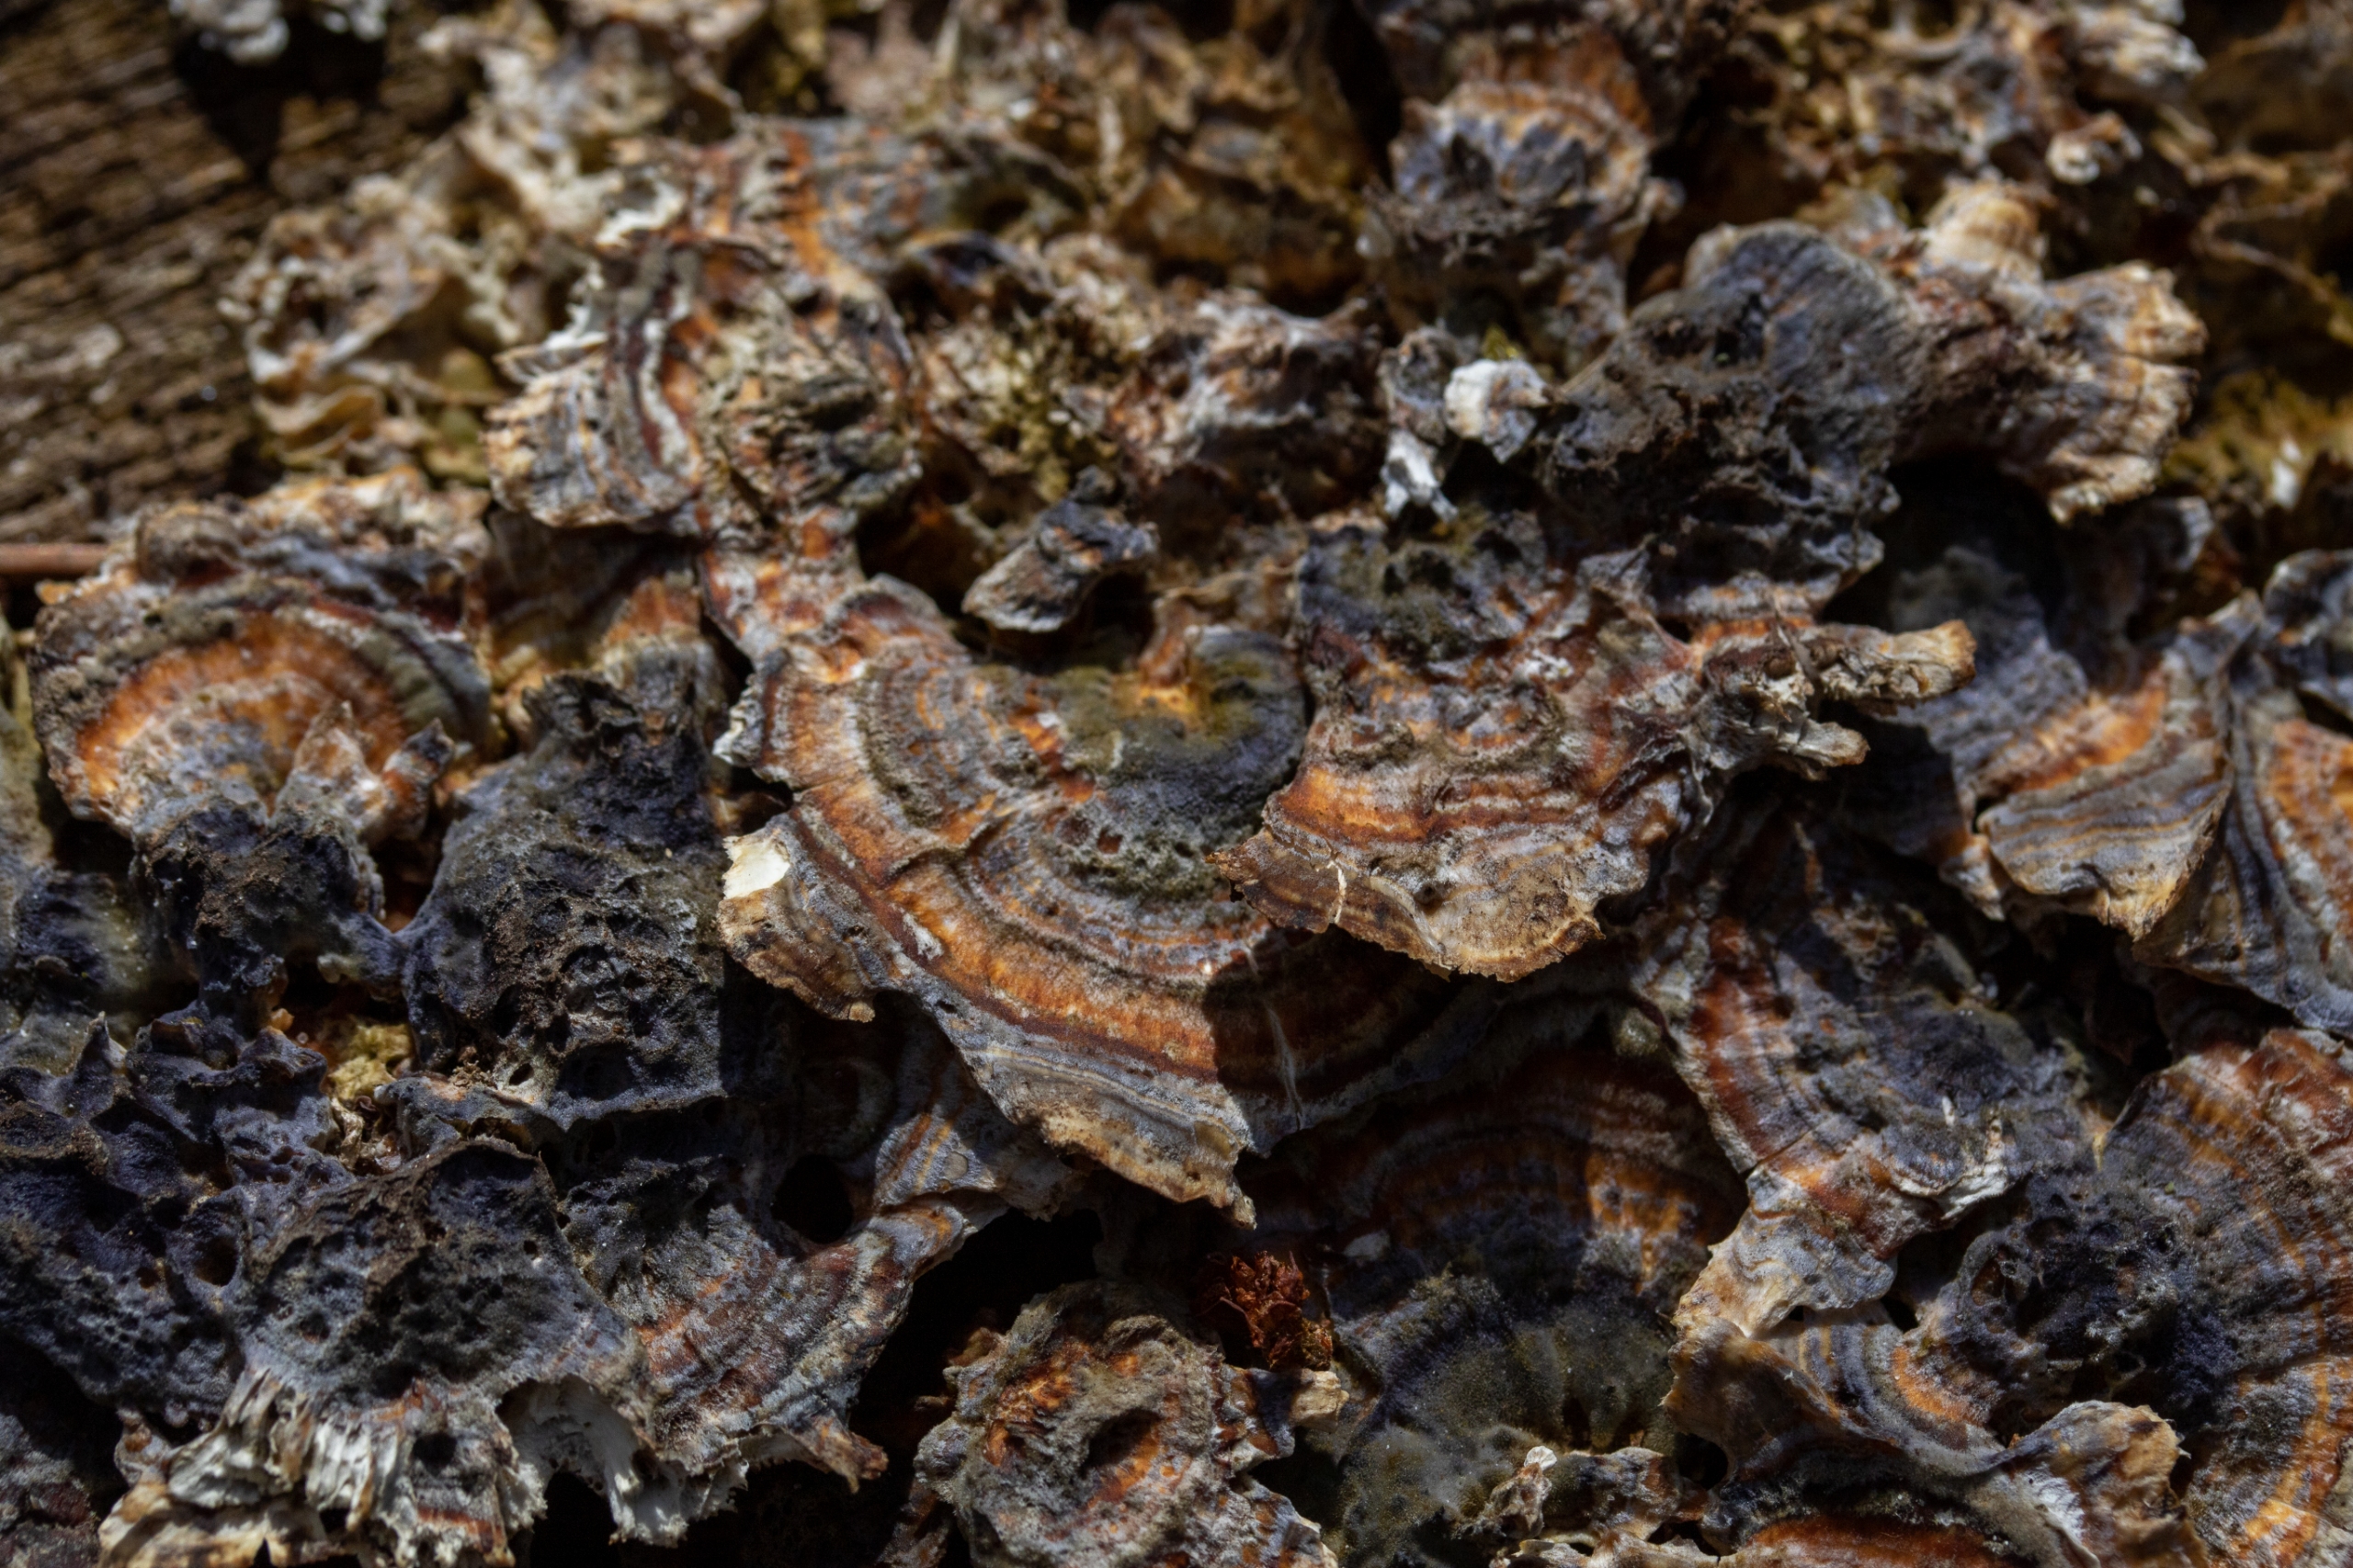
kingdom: Fungi
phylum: Basidiomycota
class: Agaricomycetes
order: Polyporales
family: Polyporaceae
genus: Trametes
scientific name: Trametes versicolor
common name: Broget læderporesvamp
